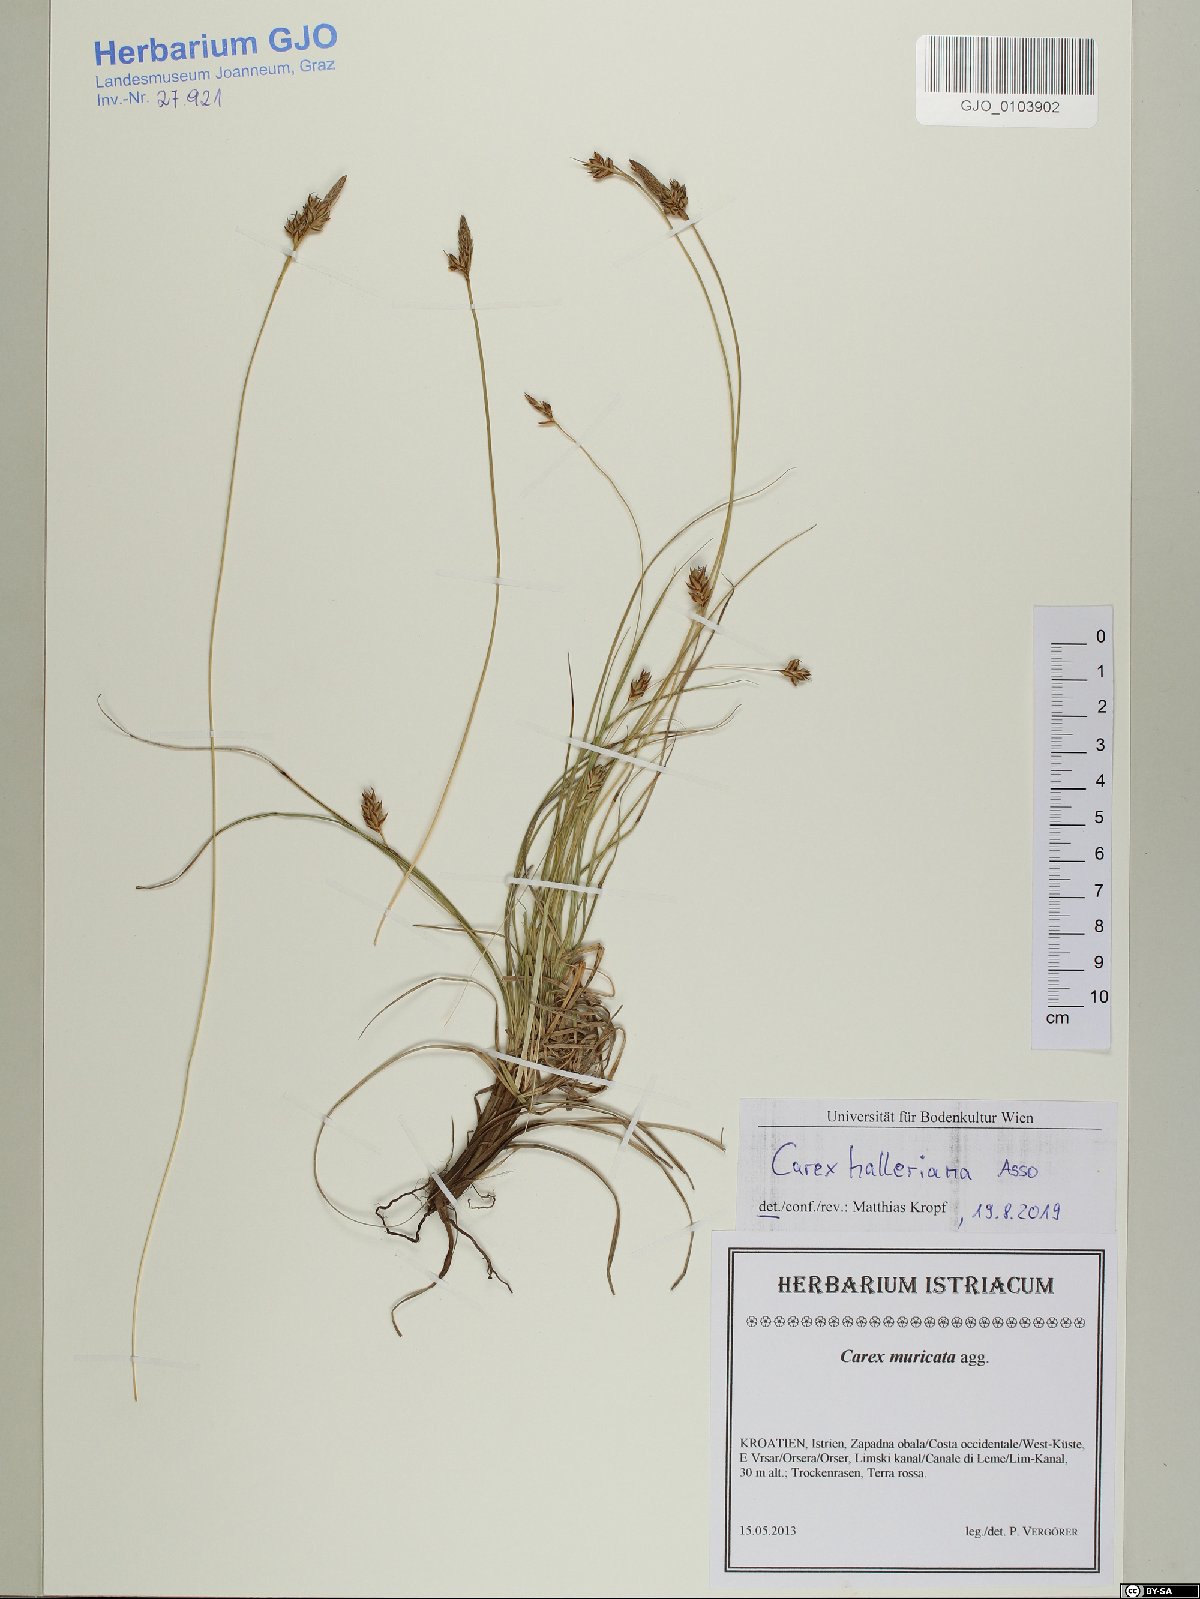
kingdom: Plantae
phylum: Tracheophyta
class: Liliopsida
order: Poales
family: Cyperaceae
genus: Carex
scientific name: Carex halleriana
